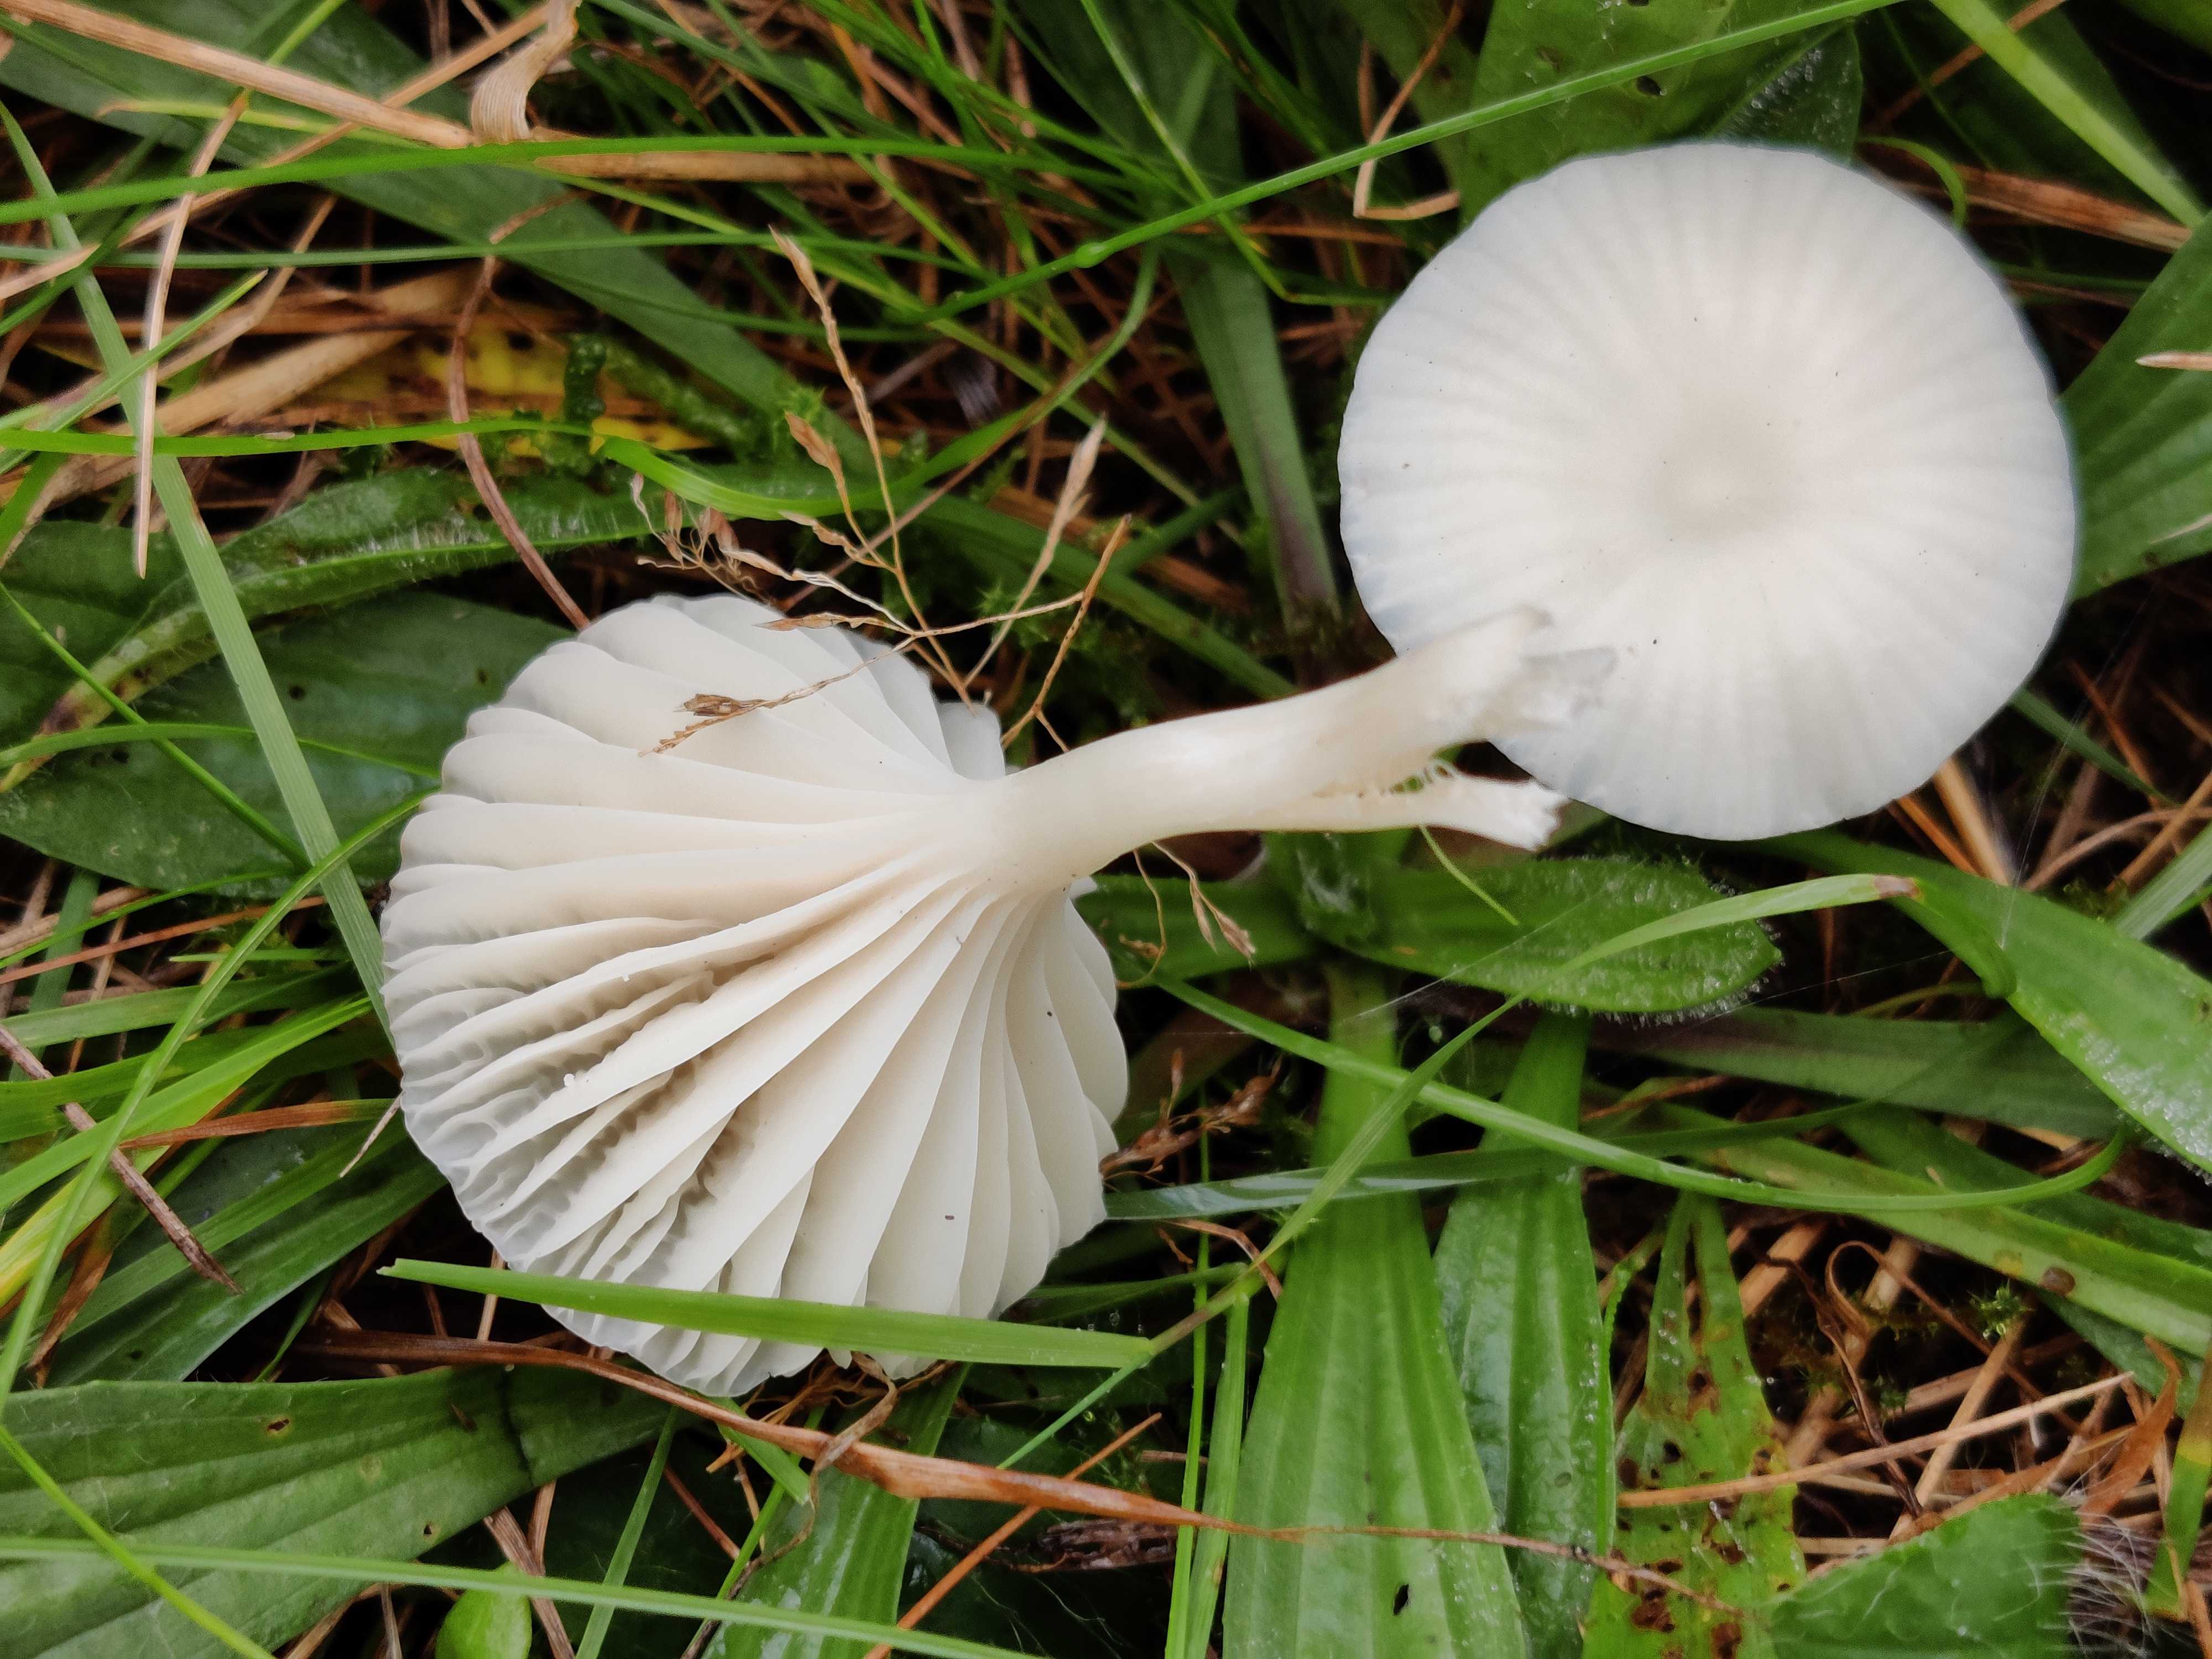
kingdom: Fungi
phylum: Basidiomycota
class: Agaricomycetes
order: Agaricales
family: Hygrophoraceae
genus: Cuphophyllus
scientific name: Cuphophyllus virgineus
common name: snehvid vokshat
